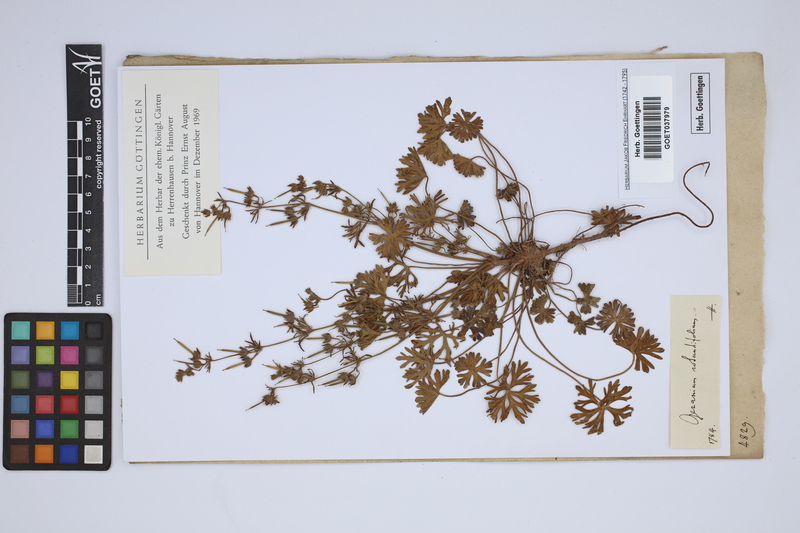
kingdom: Plantae
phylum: Tracheophyta
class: Magnoliopsida
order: Geraniales
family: Geraniaceae
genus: Geranium
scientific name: Geranium dissectum
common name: Cut-leaved crane's-bill
